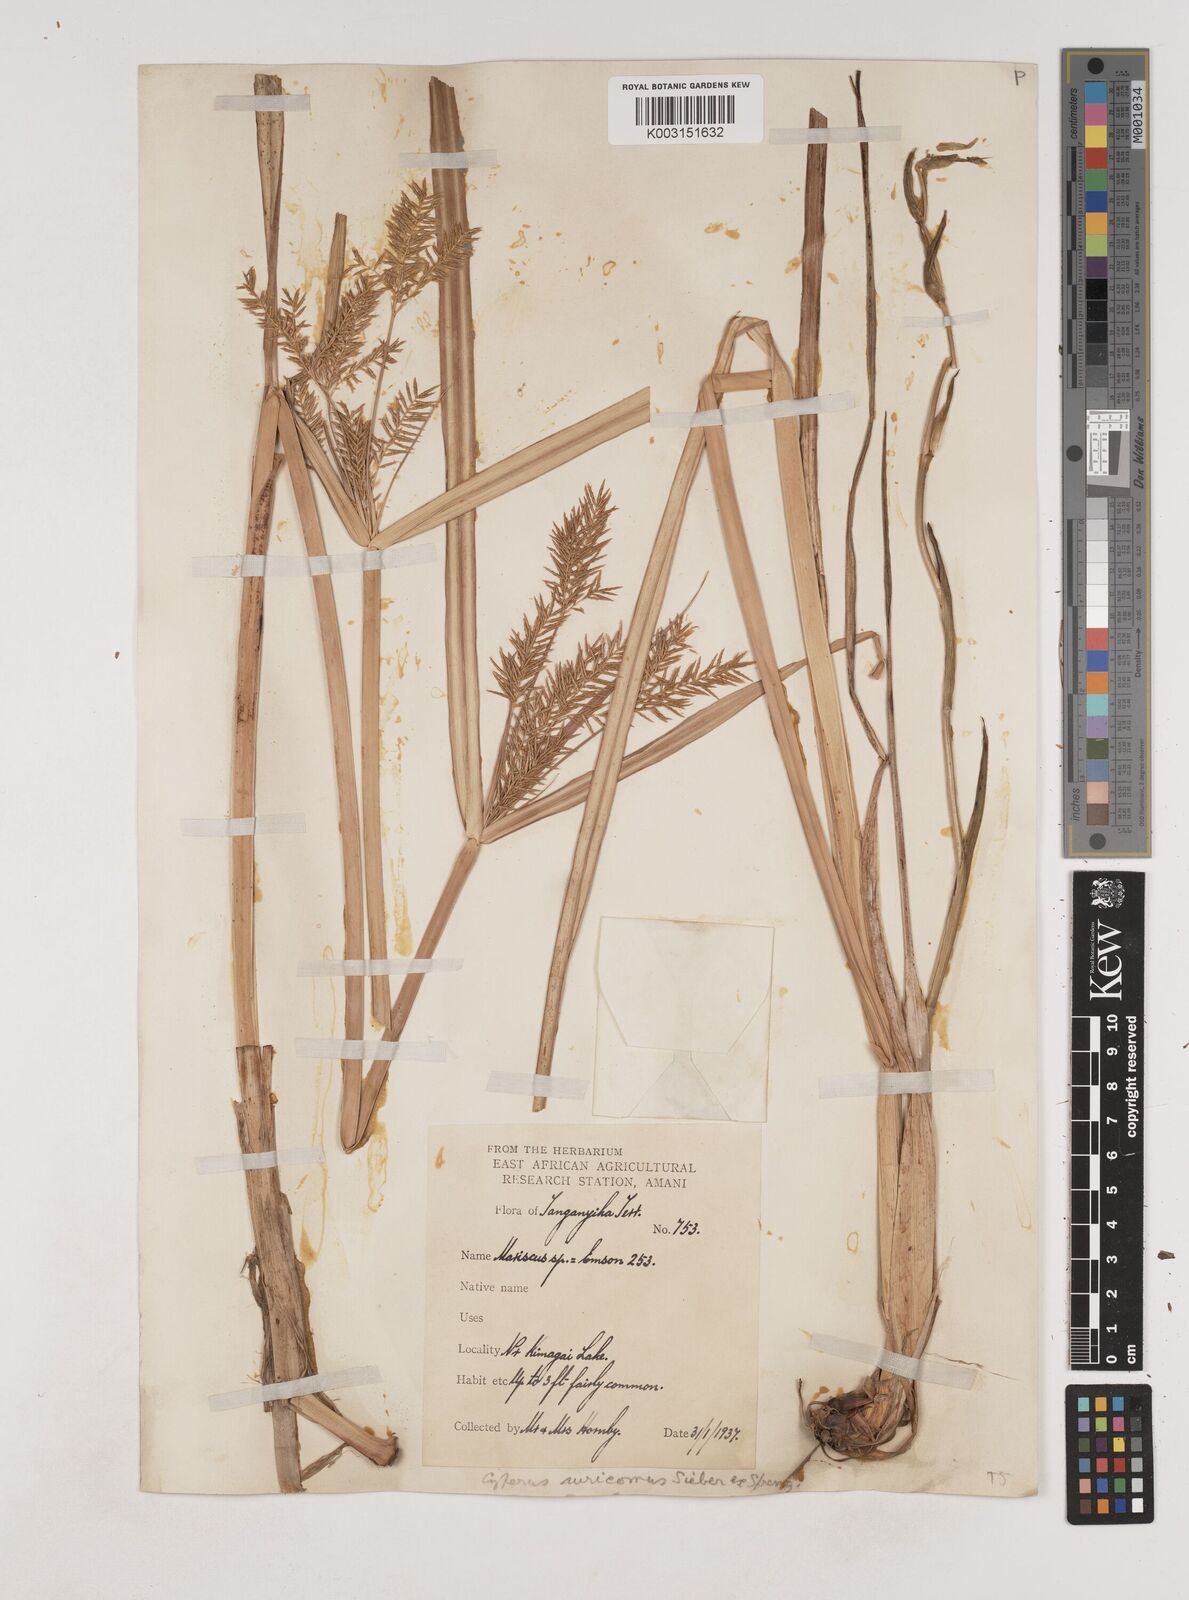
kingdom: Plantae
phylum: Tracheophyta
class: Liliopsida
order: Poales
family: Cyperaceae
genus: Cyperus
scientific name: Cyperus digitatus
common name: Finger flatsedge
